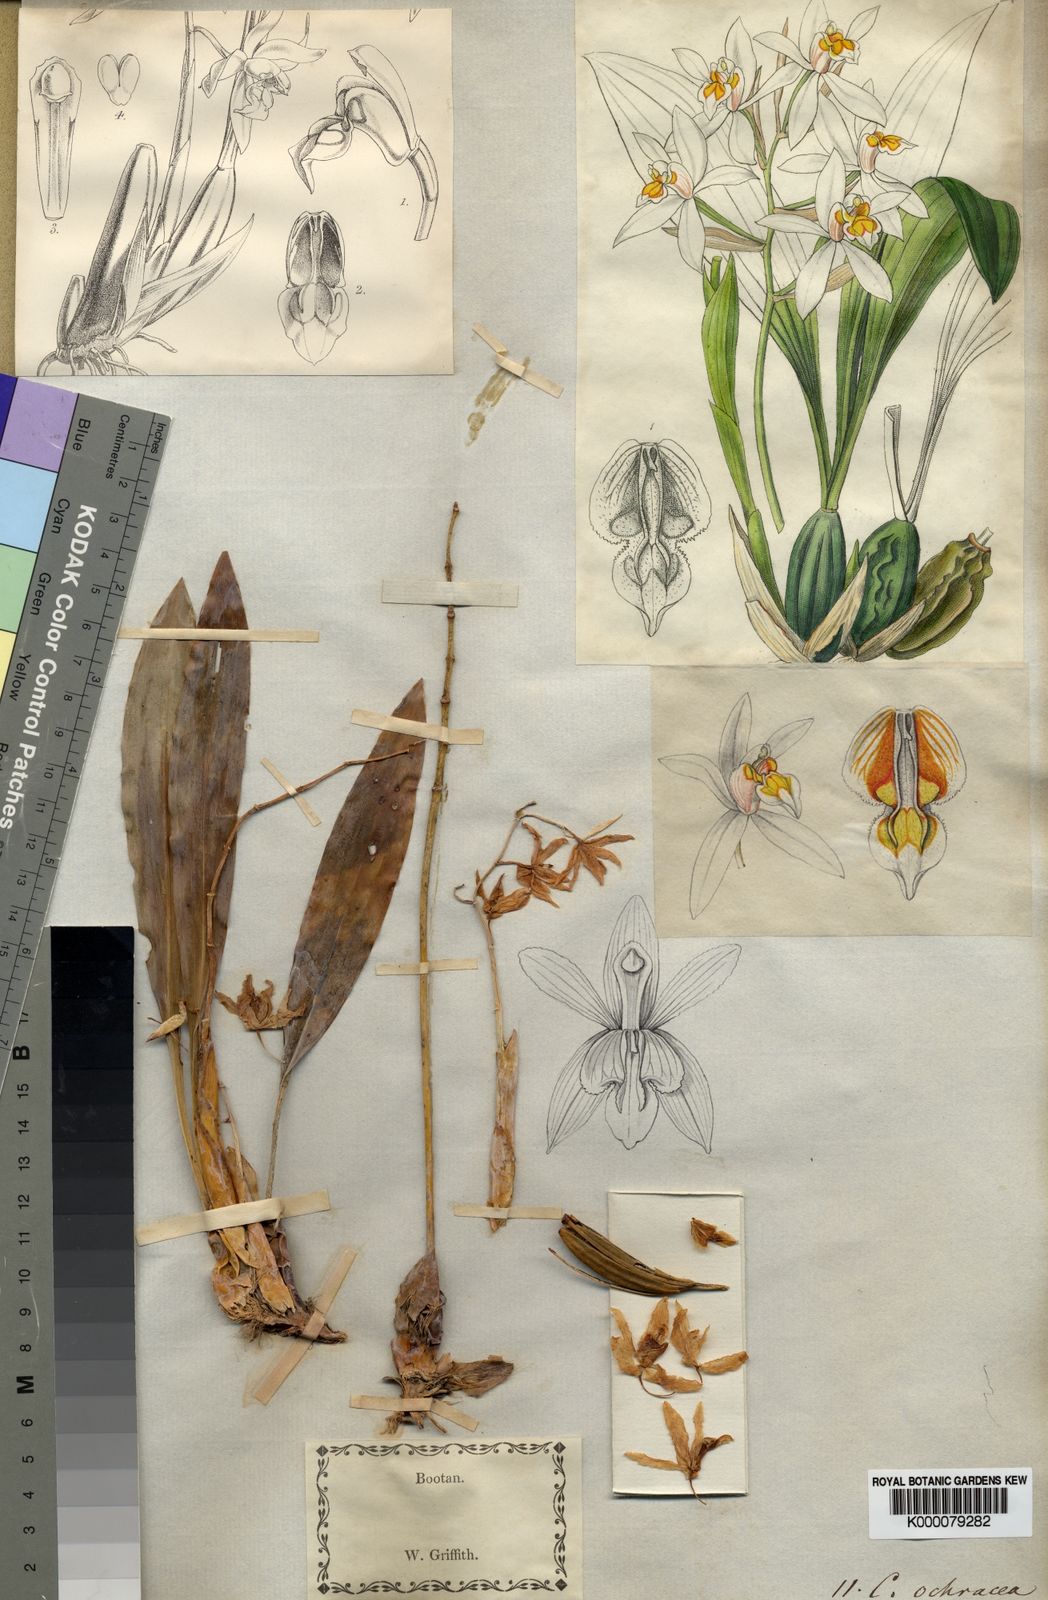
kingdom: Plantae
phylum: Tracheophyta
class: Liliopsida
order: Asparagales
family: Orchidaceae
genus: Coelogyne
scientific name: Coelogyne nitida
